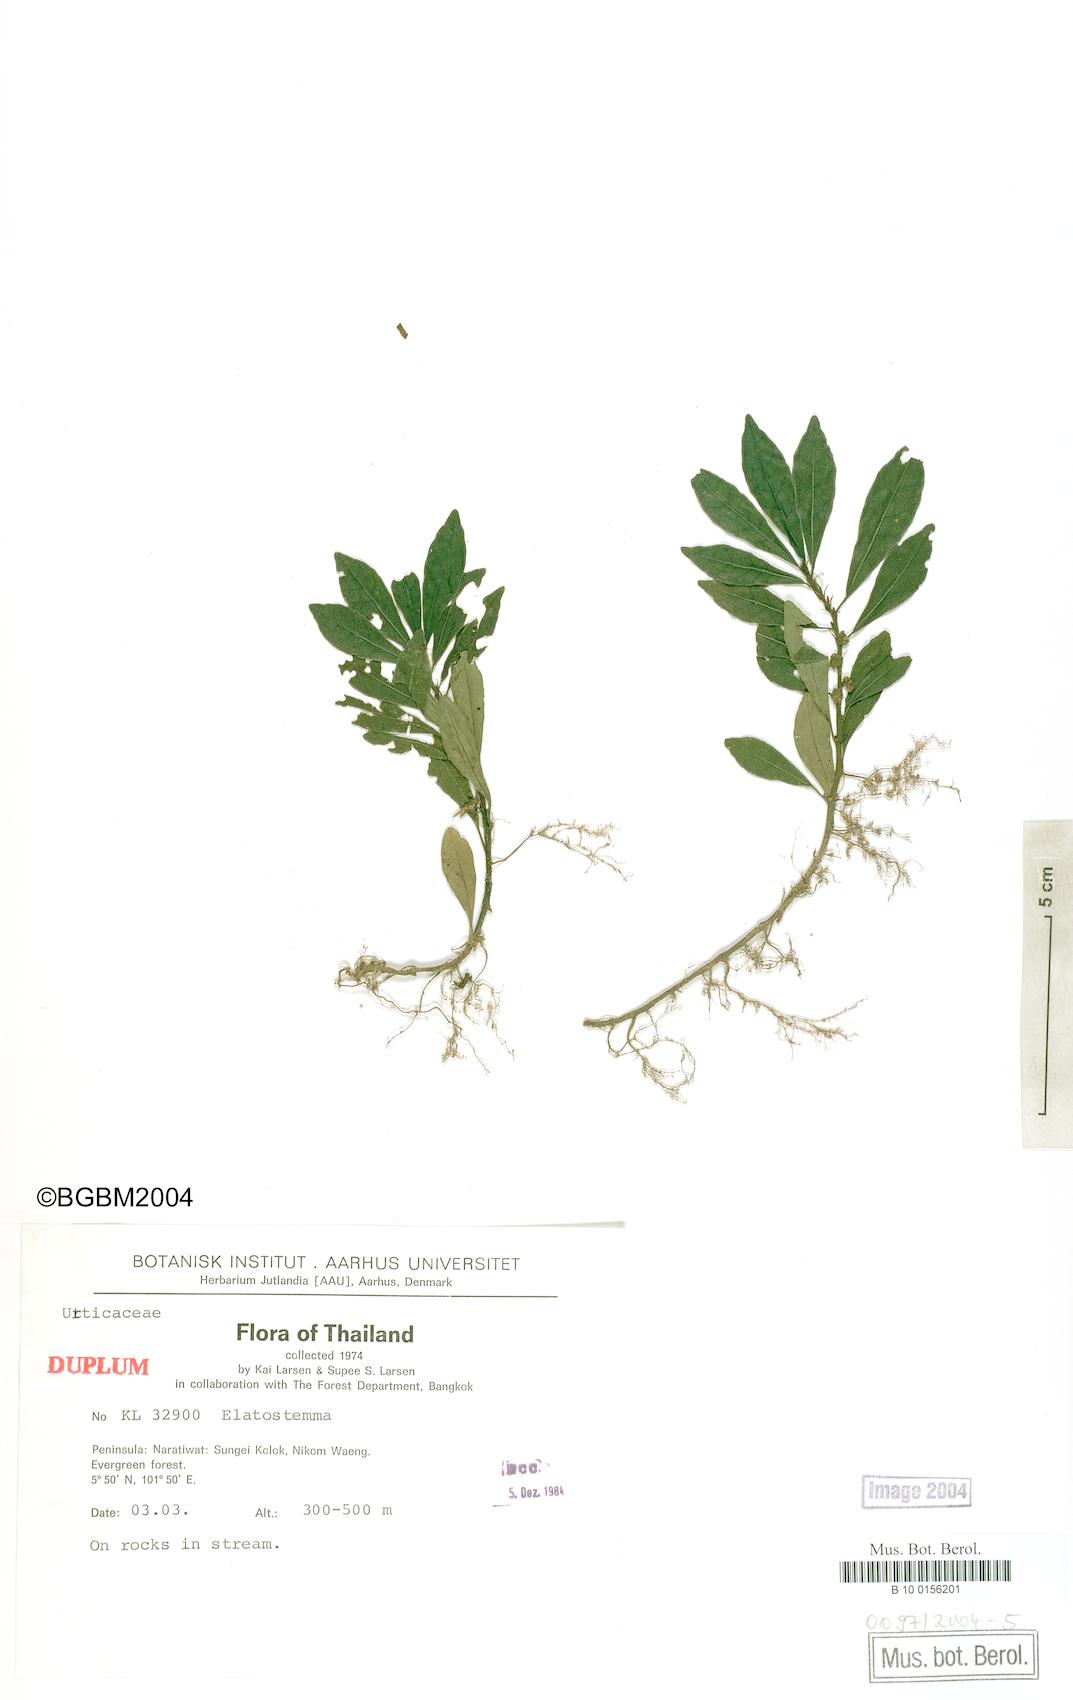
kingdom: Plantae
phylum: Tracheophyta
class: Magnoliopsida
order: Rosales
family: Urticaceae
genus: Elatostema
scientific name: Elatostema
